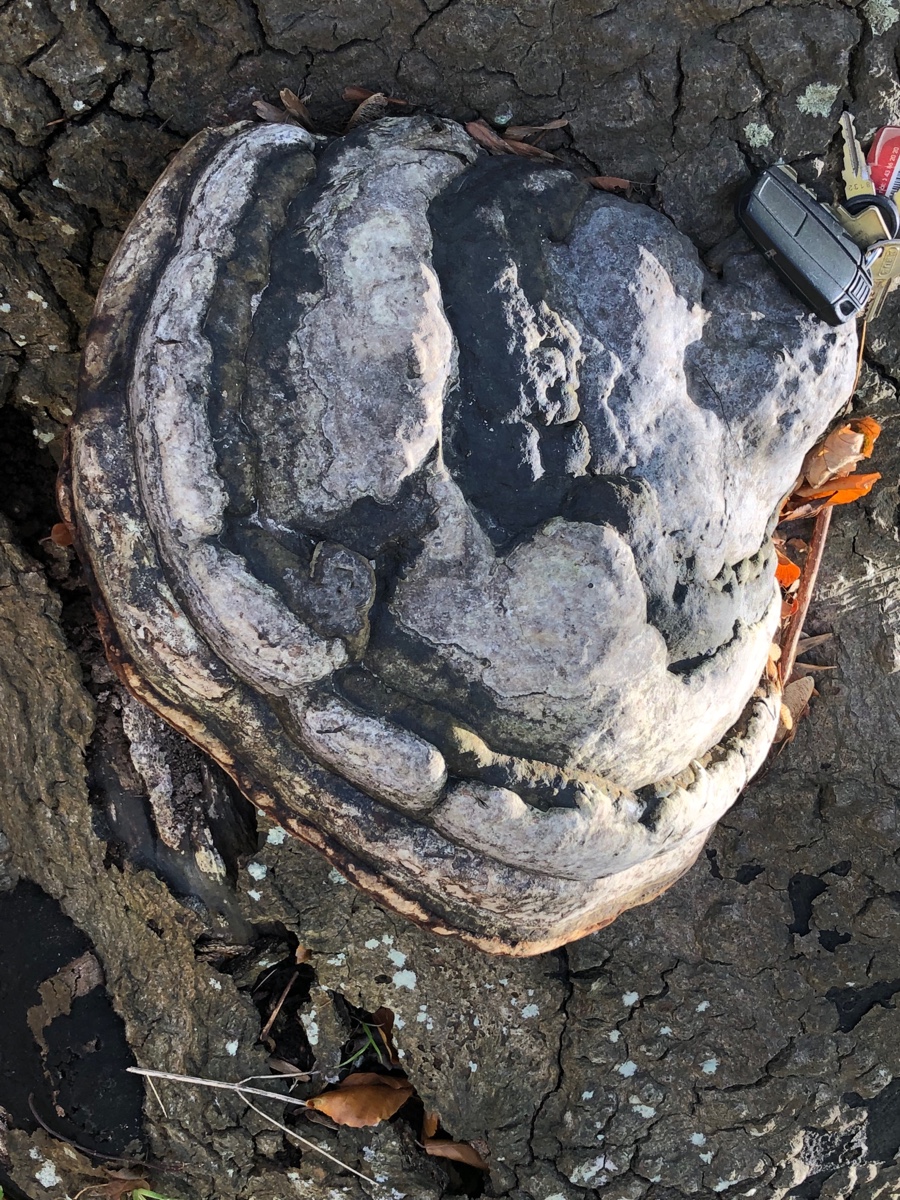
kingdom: Fungi
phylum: Basidiomycota
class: Agaricomycetes
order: Polyporales
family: Polyporaceae
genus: Fomes
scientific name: Fomes fomentarius
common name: tøndersvamp
